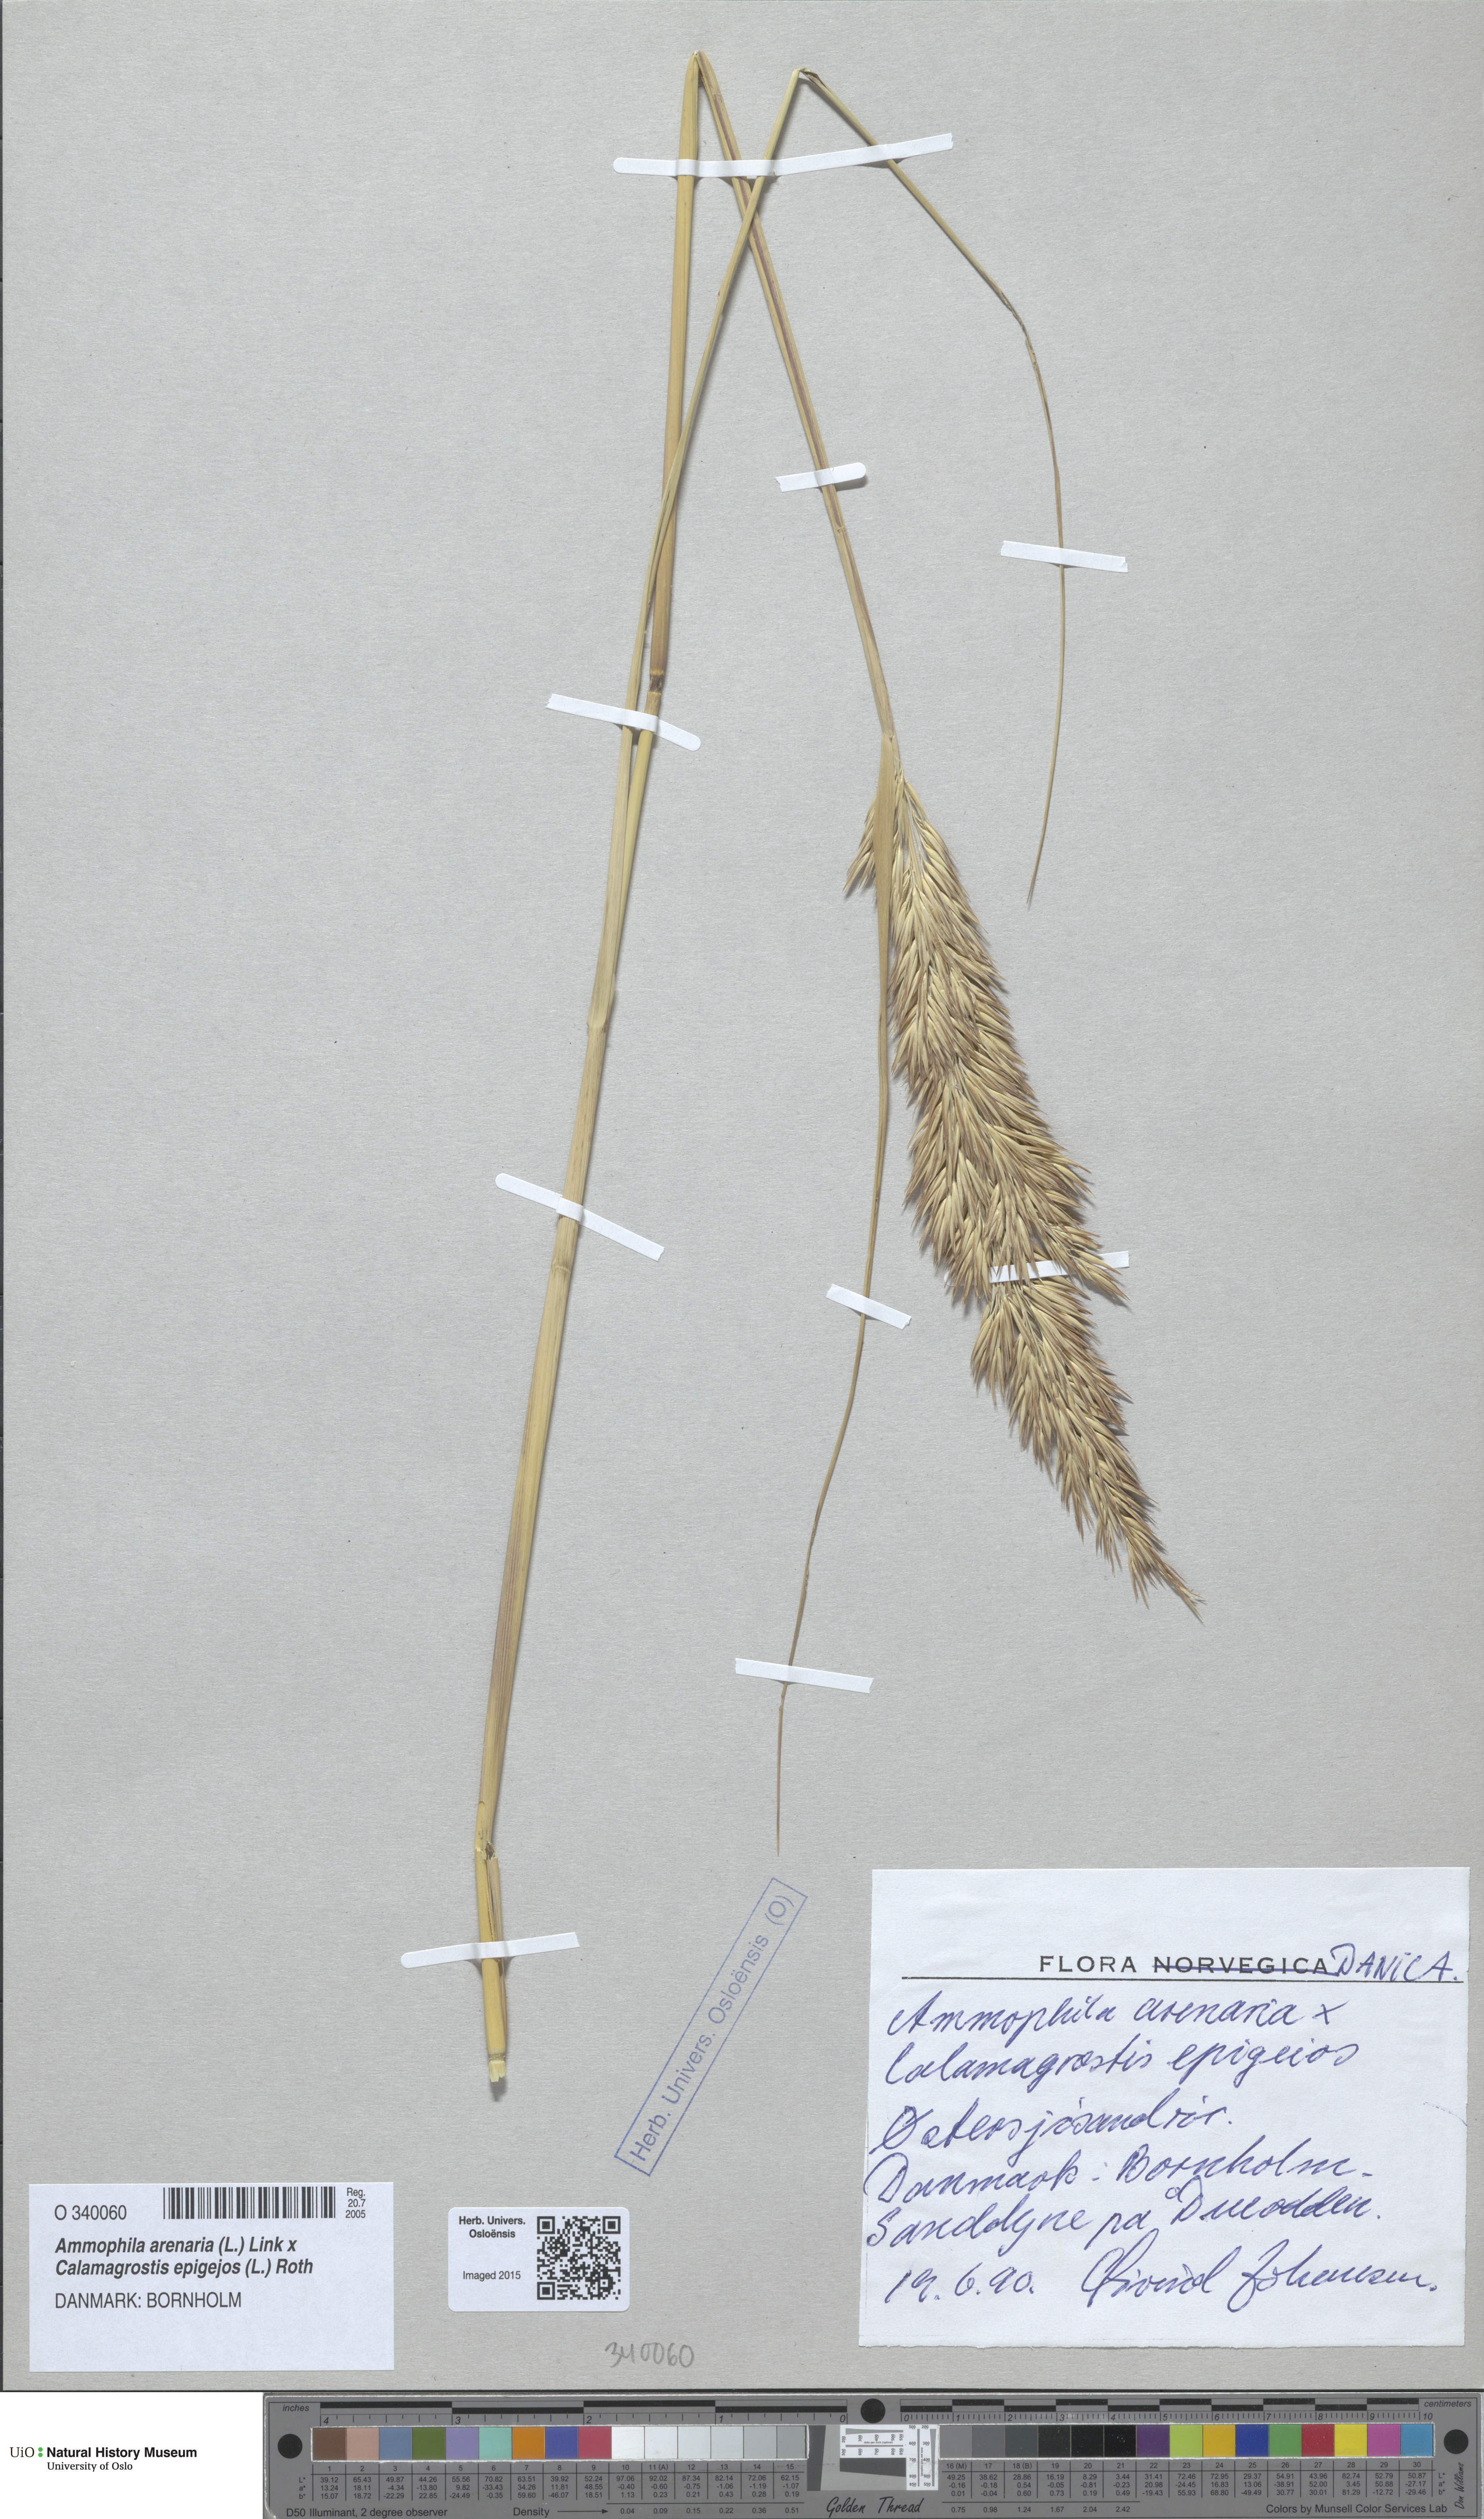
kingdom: Animalia
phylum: Arthropoda
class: Insecta
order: Hymenoptera
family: Sphecidae
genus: Ammophila
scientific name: Ammophila
